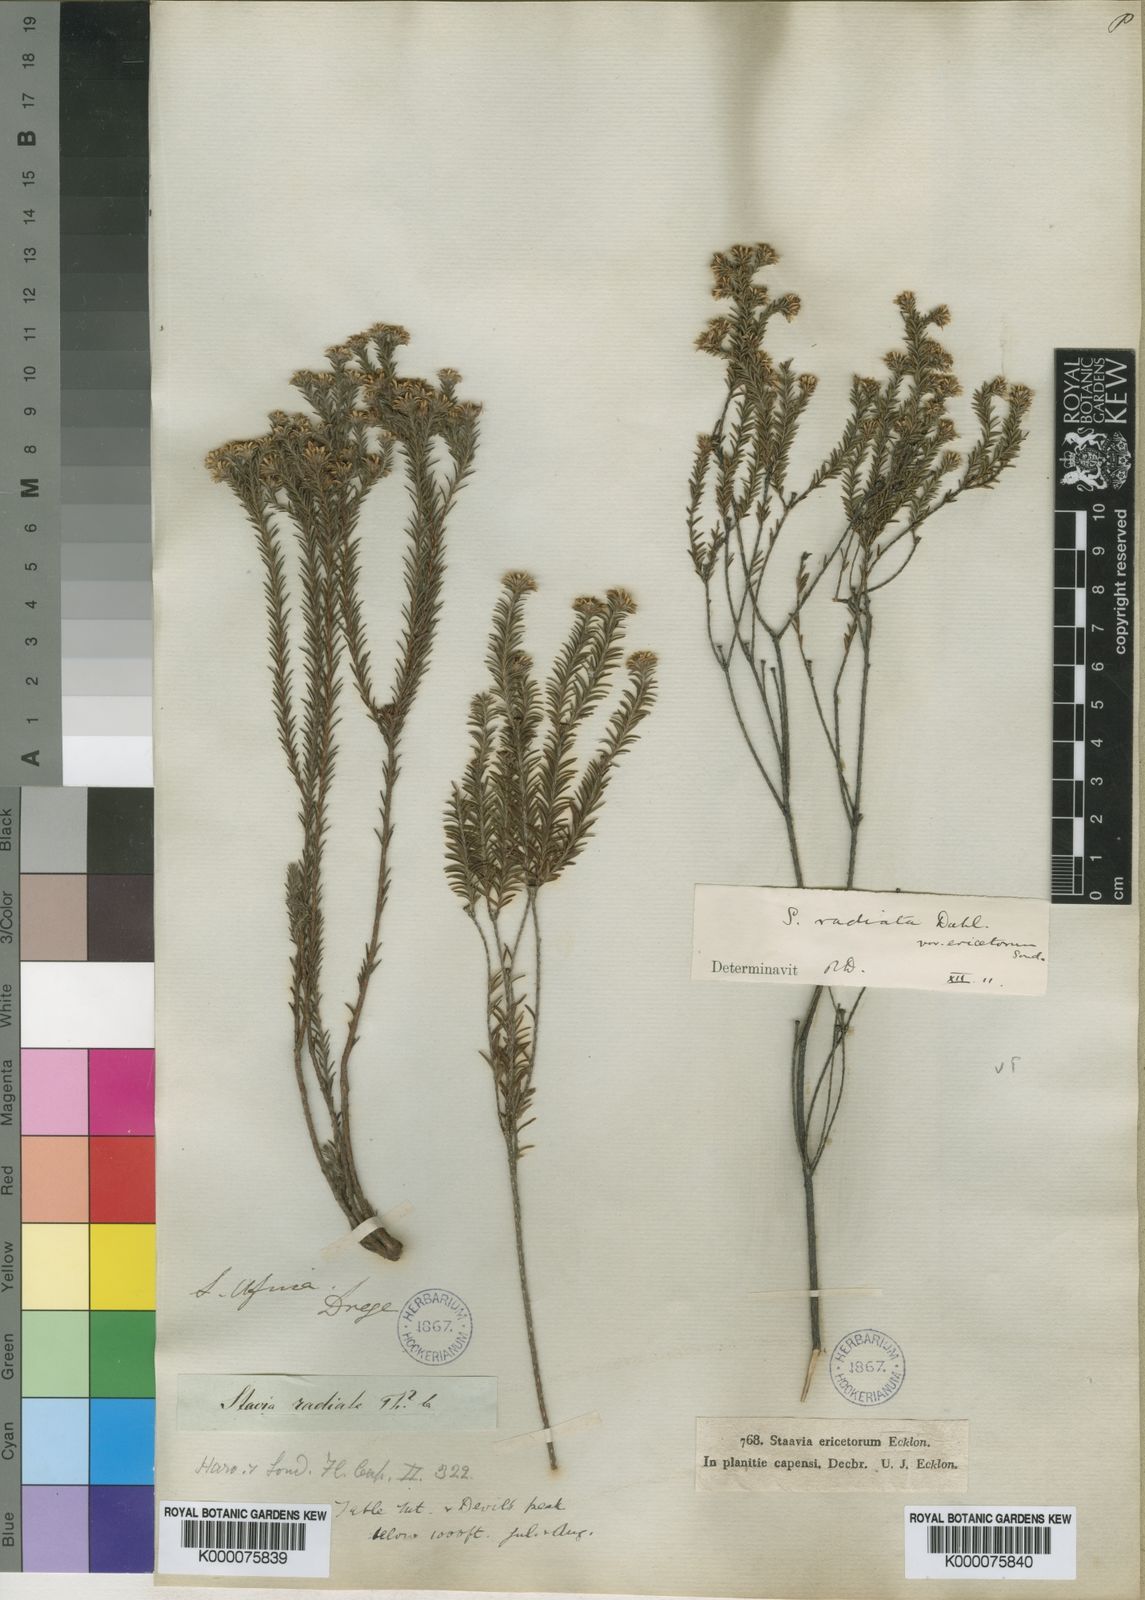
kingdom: Plantae
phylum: Tracheophyta
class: Magnoliopsida
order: Bruniales
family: Bruniaceae
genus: Staavia
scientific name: Staavia radiata
